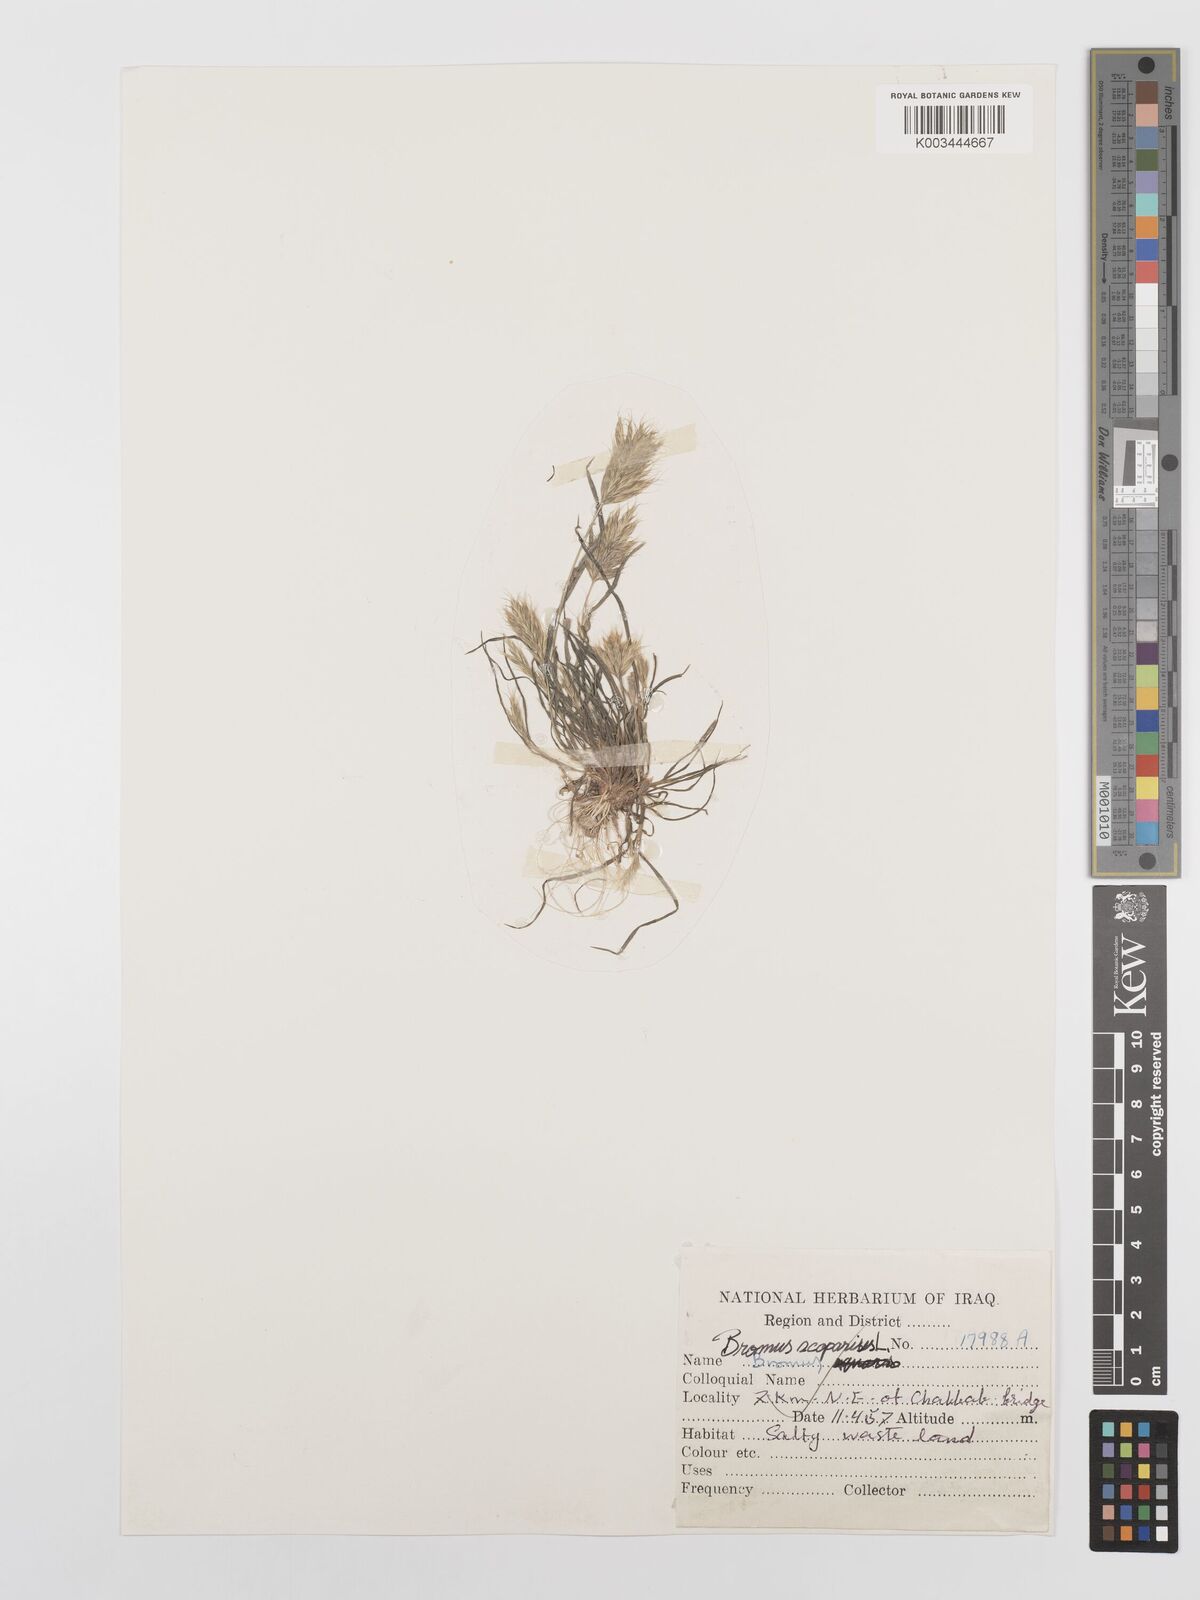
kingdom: Plantae
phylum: Tracheophyta
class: Liliopsida
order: Poales
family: Poaceae
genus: Bromus
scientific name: Bromus scoparius
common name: Broom brome
